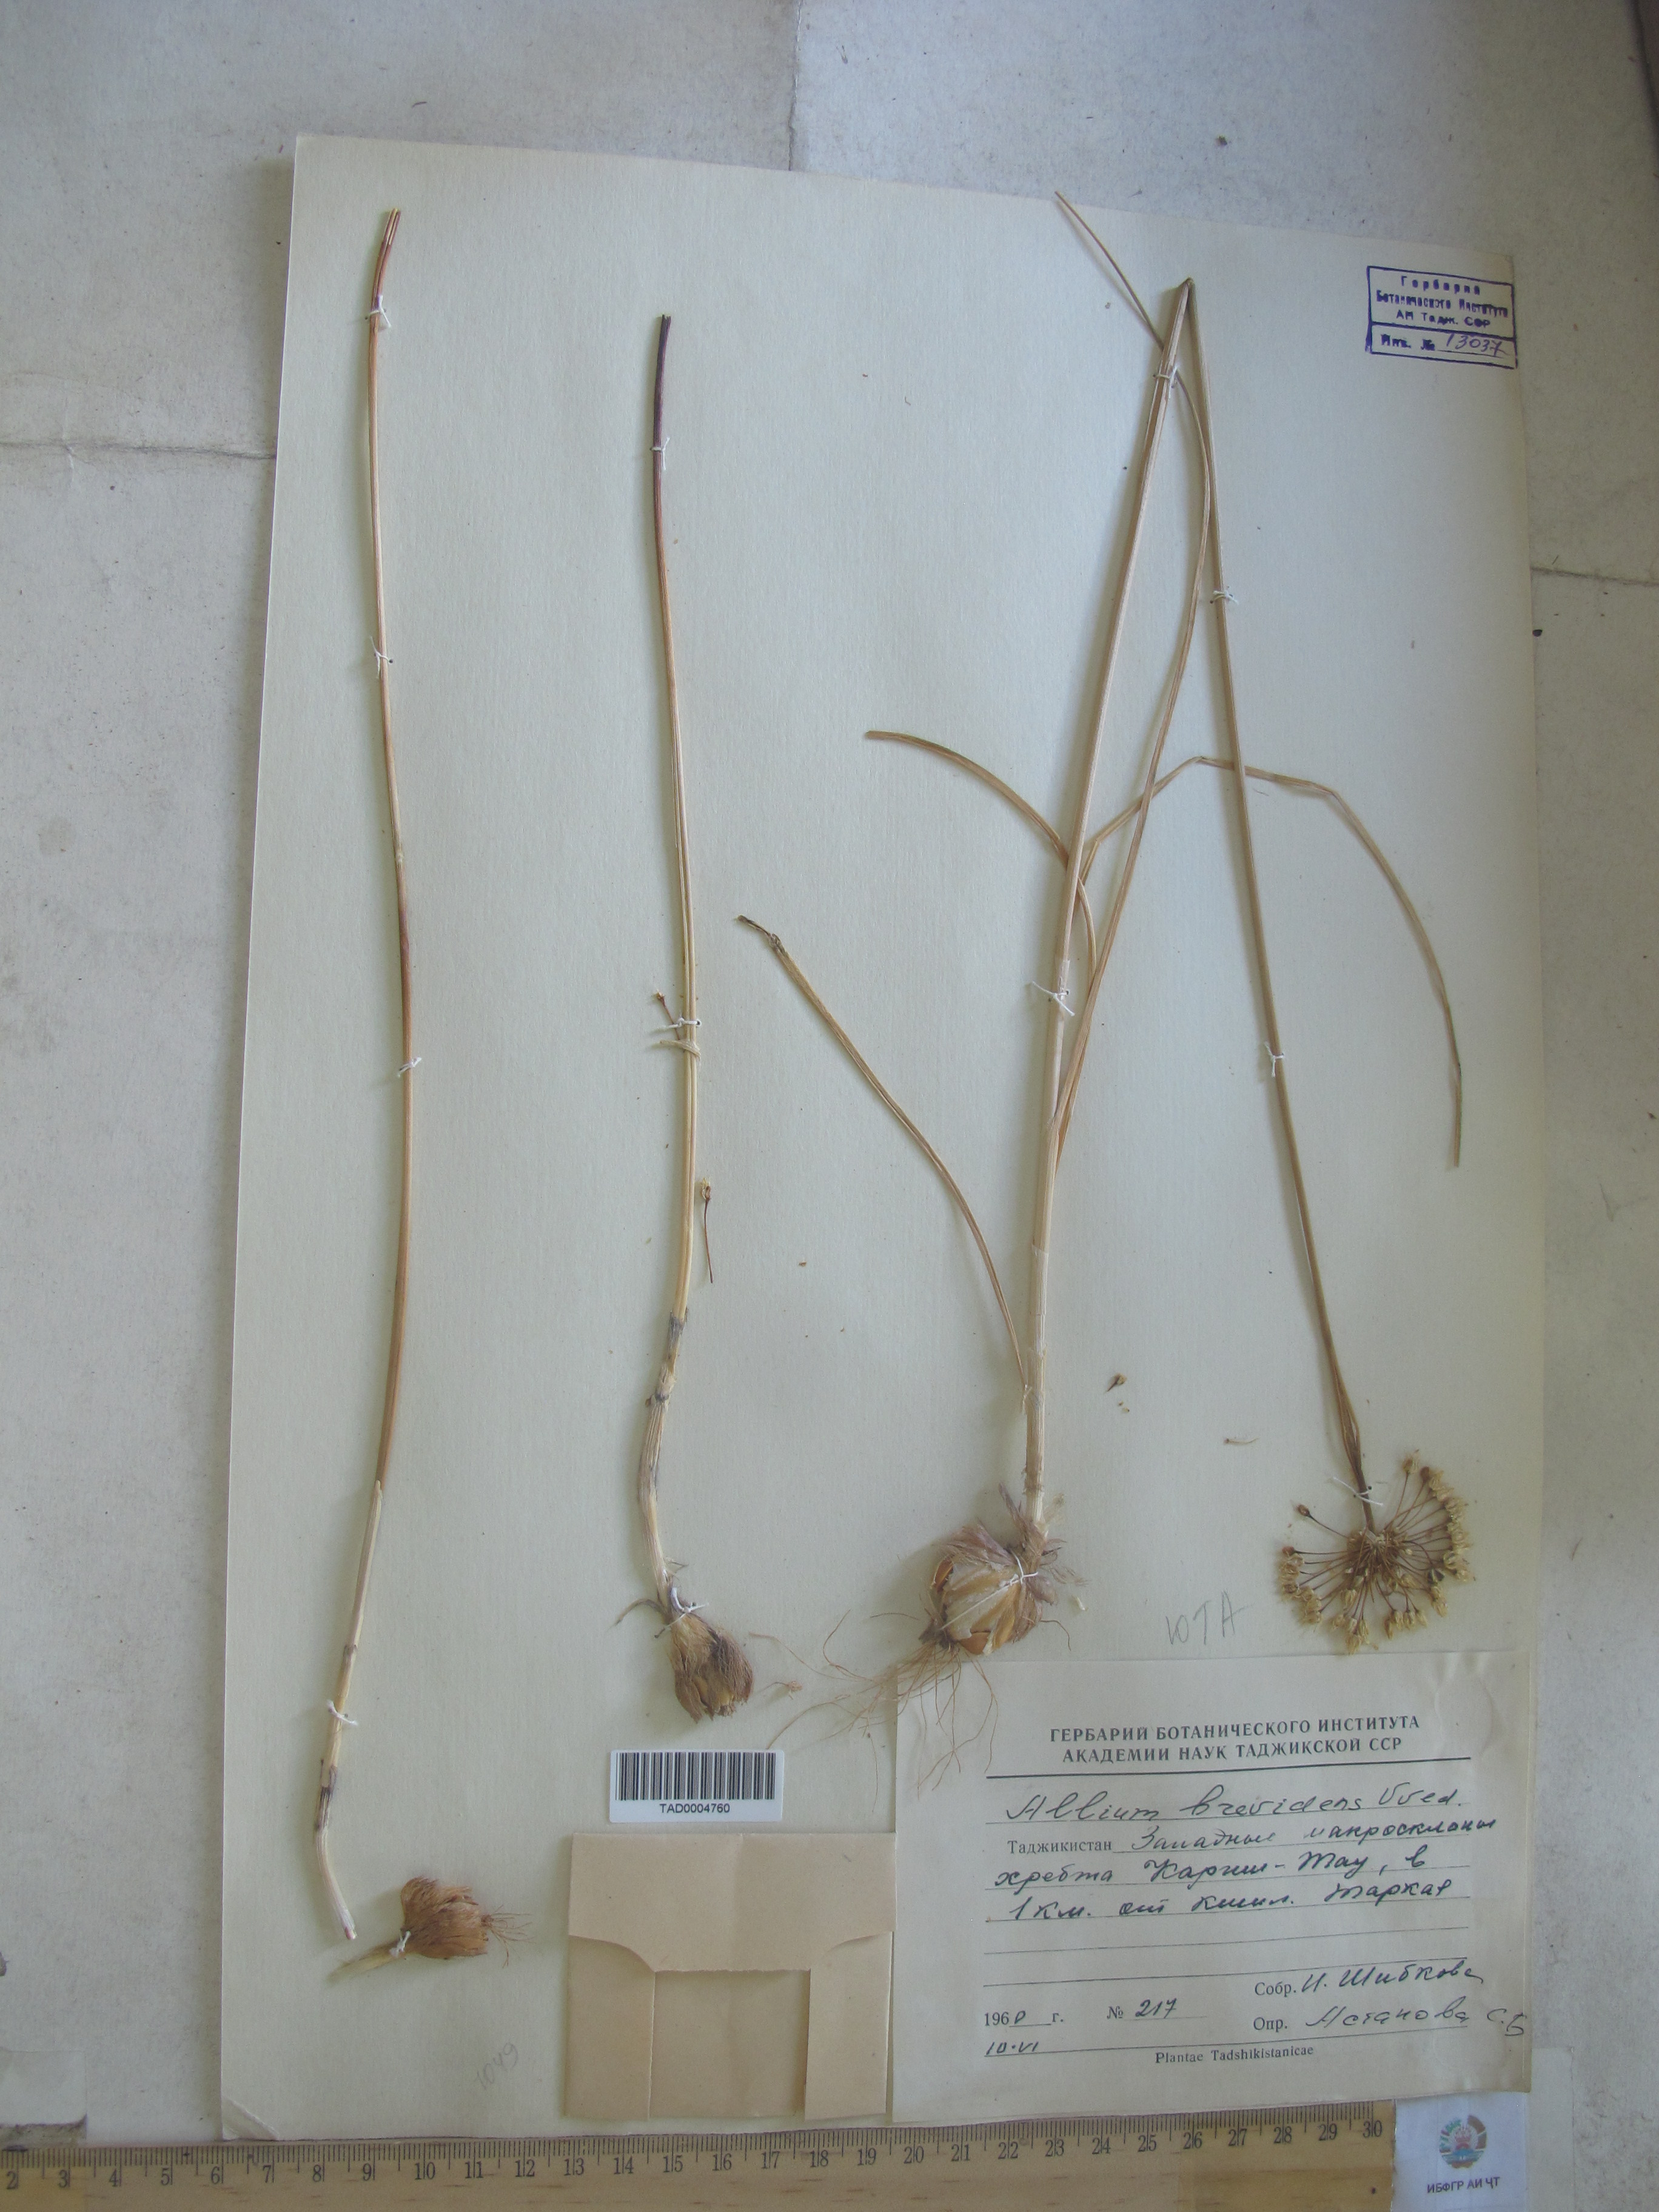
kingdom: Plantae
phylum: Tracheophyta
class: Liliopsida
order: Asparagales
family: Amaryllidaceae
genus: Allium
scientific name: Allium brevidens
